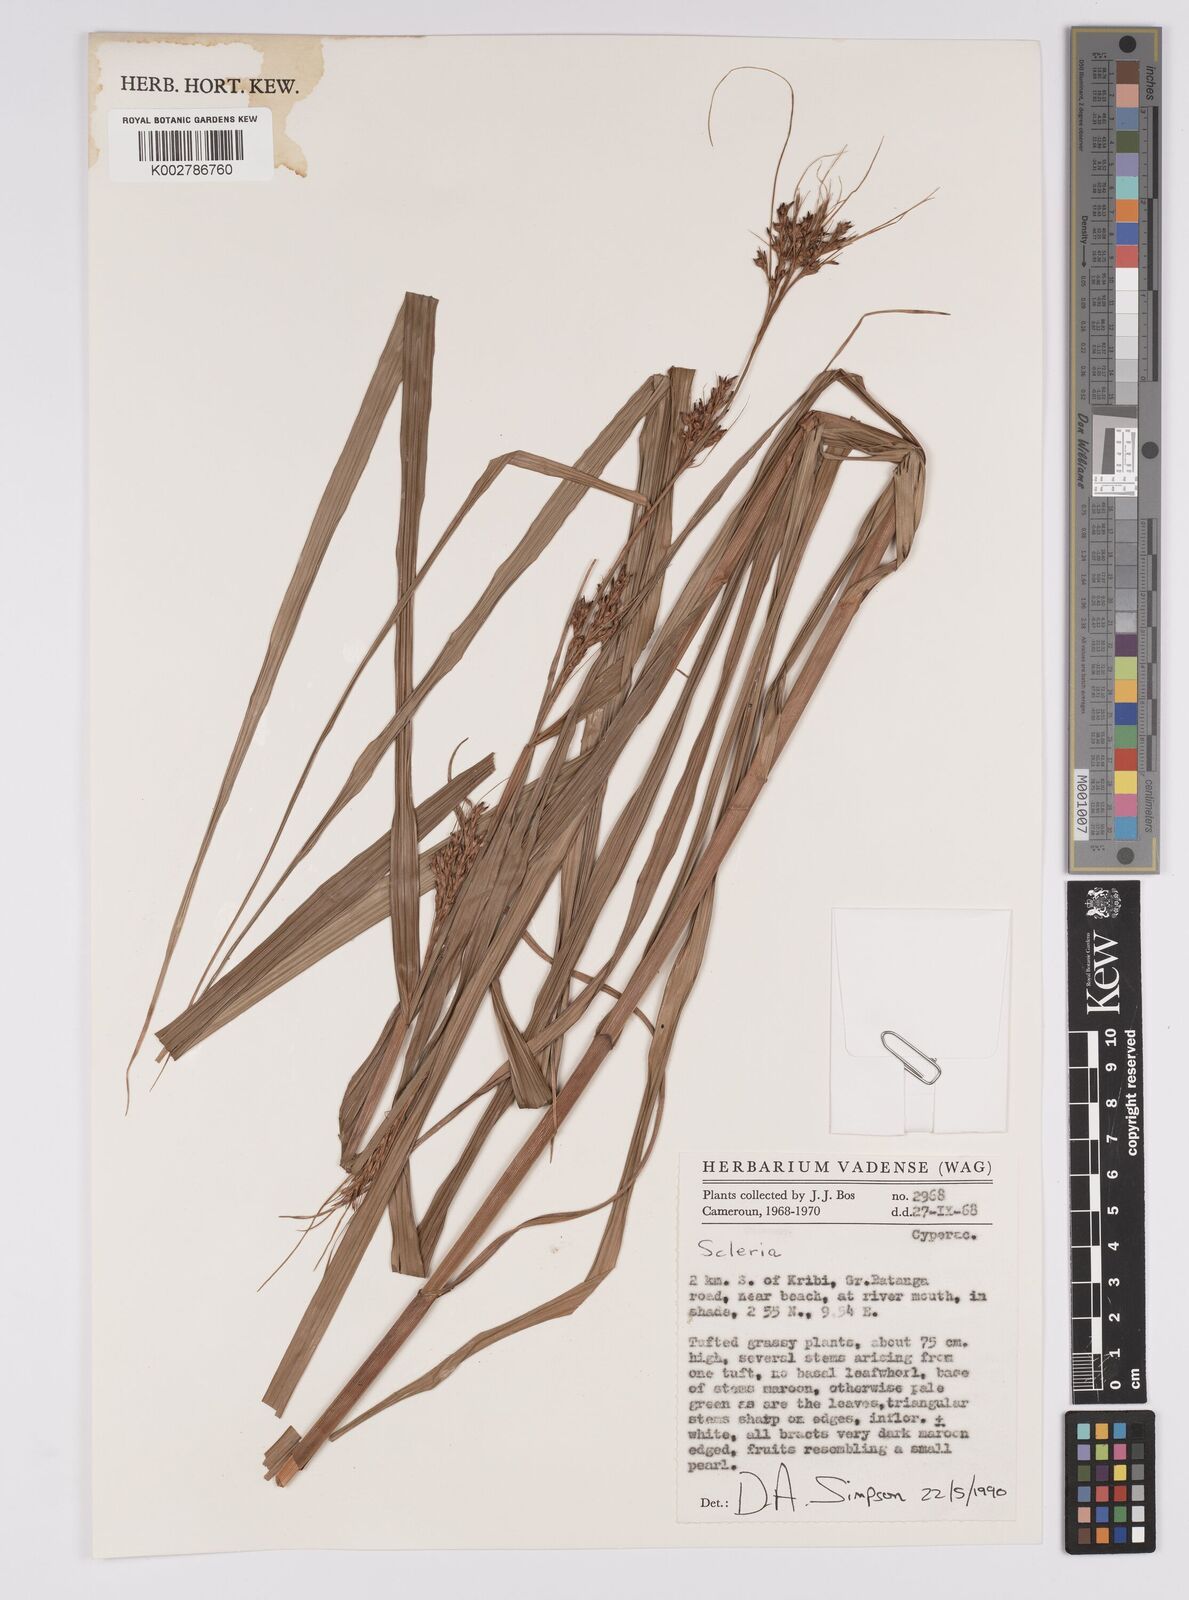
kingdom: Plantae
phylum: Tracheophyta
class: Liliopsida
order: Poales
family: Cyperaceae
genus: Scleria
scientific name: Scleria
